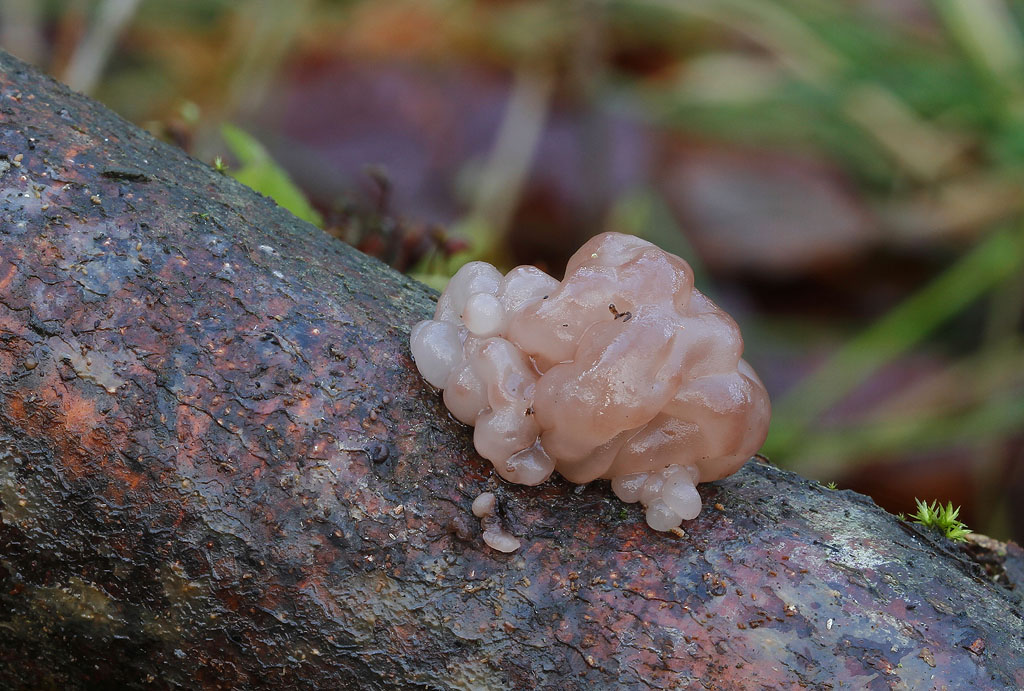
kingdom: Fungi
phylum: Ascomycota
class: Leotiomycetes
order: Helotiales
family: Gelatinodiscaceae
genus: Ascotremella
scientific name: Ascotremella faginea
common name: hjerne-bævreskive
